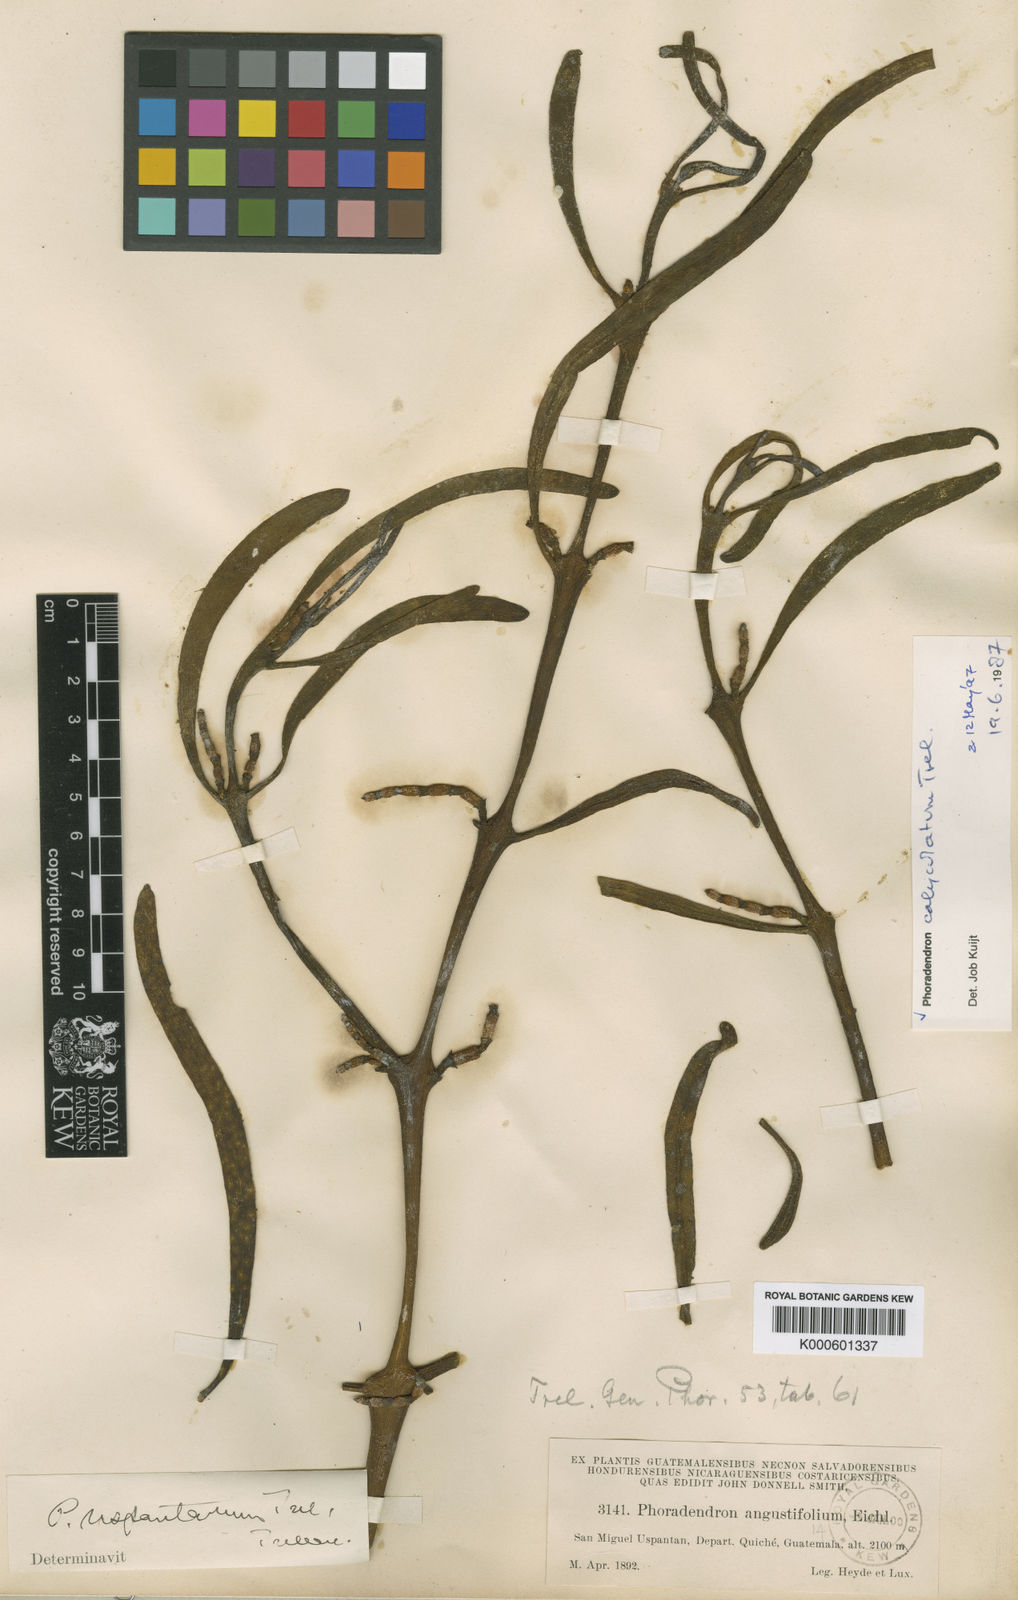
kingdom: Plantae
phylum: Tracheophyta
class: Magnoliopsida
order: Santalales
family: Viscaceae
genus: Phoradendron
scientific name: Phoradendron
